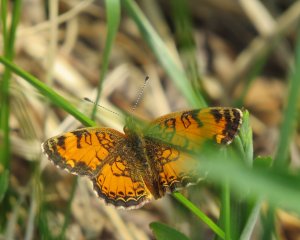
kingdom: Animalia
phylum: Arthropoda
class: Insecta
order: Lepidoptera
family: Nymphalidae
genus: Phyciodes
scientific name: Phyciodes tharos
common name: Northern Crescent
